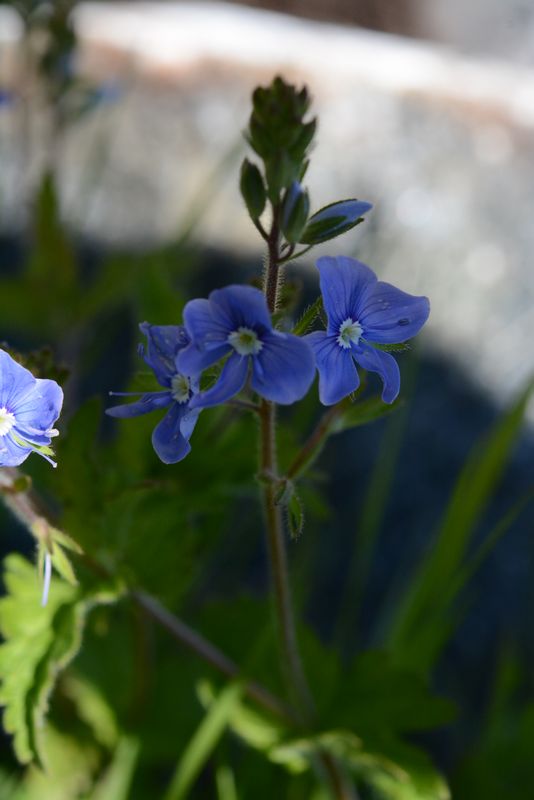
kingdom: Plantae
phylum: Tracheophyta
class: Magnoliopsida
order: Lamiales
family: Plantaginaceae
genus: Veronica
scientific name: Veronica chamaedrys
